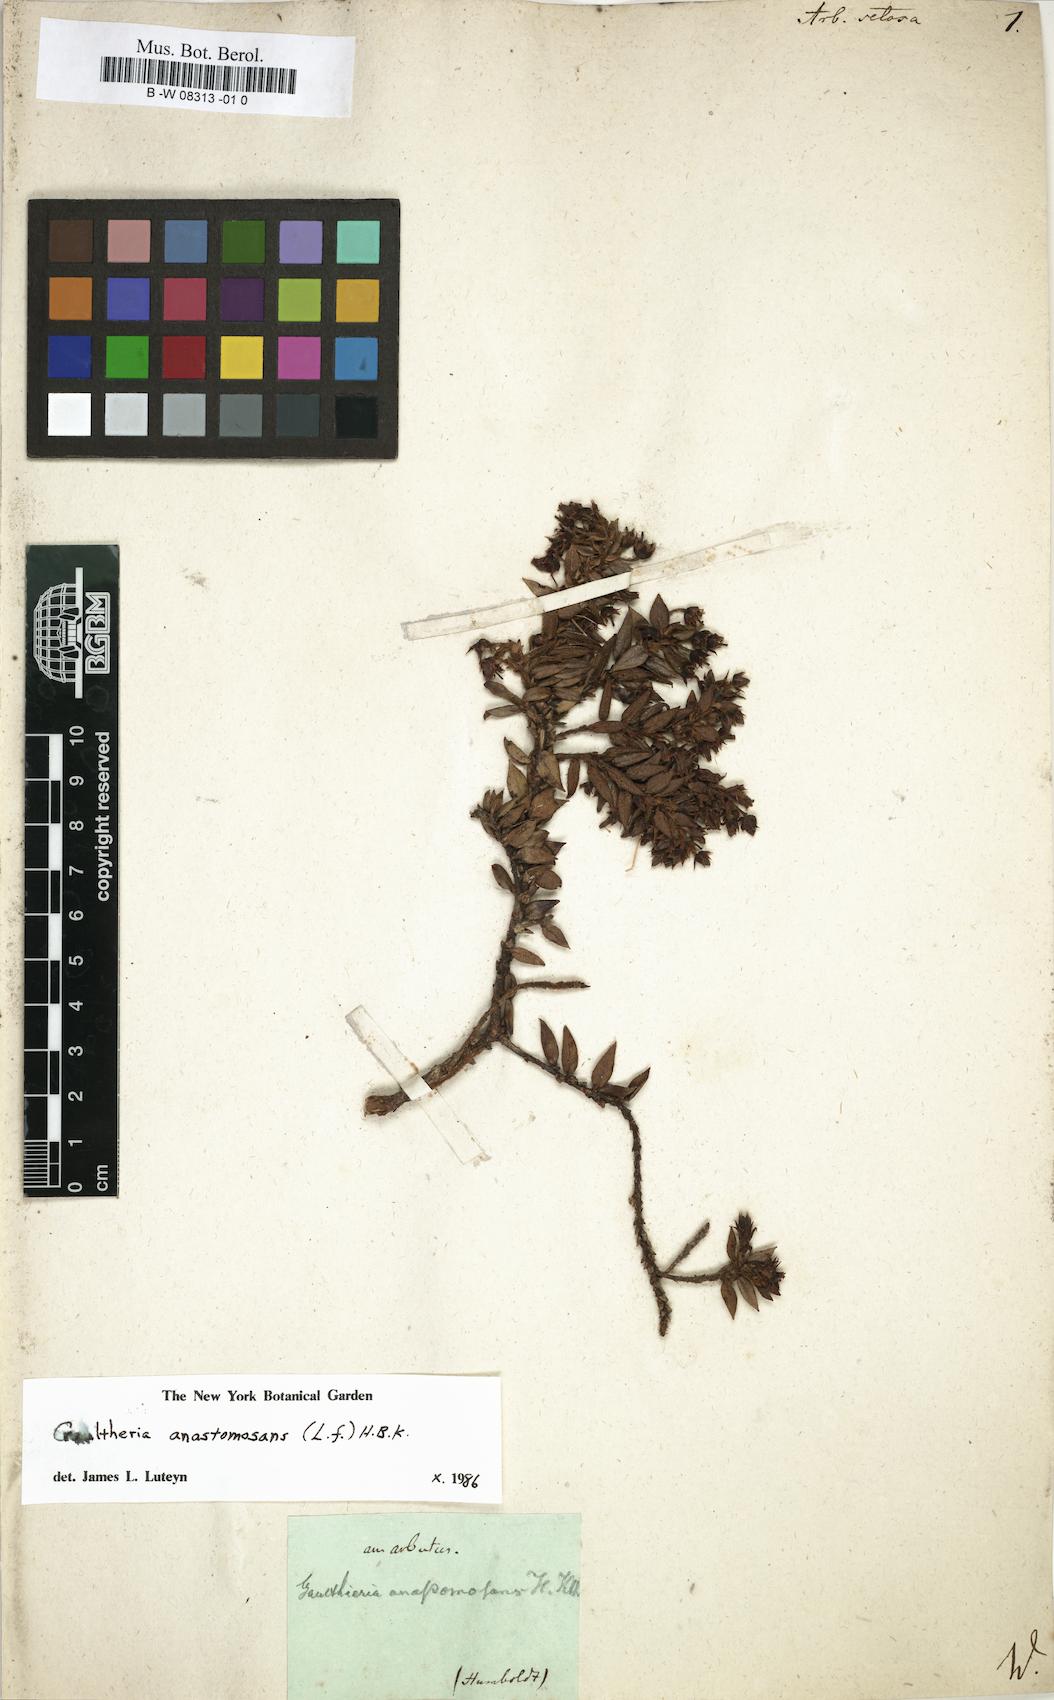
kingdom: Plantae
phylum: Tracheophyta
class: Magnoliopsida
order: Ericales
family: Ericaceae
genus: Arbutus
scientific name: Arbutus
